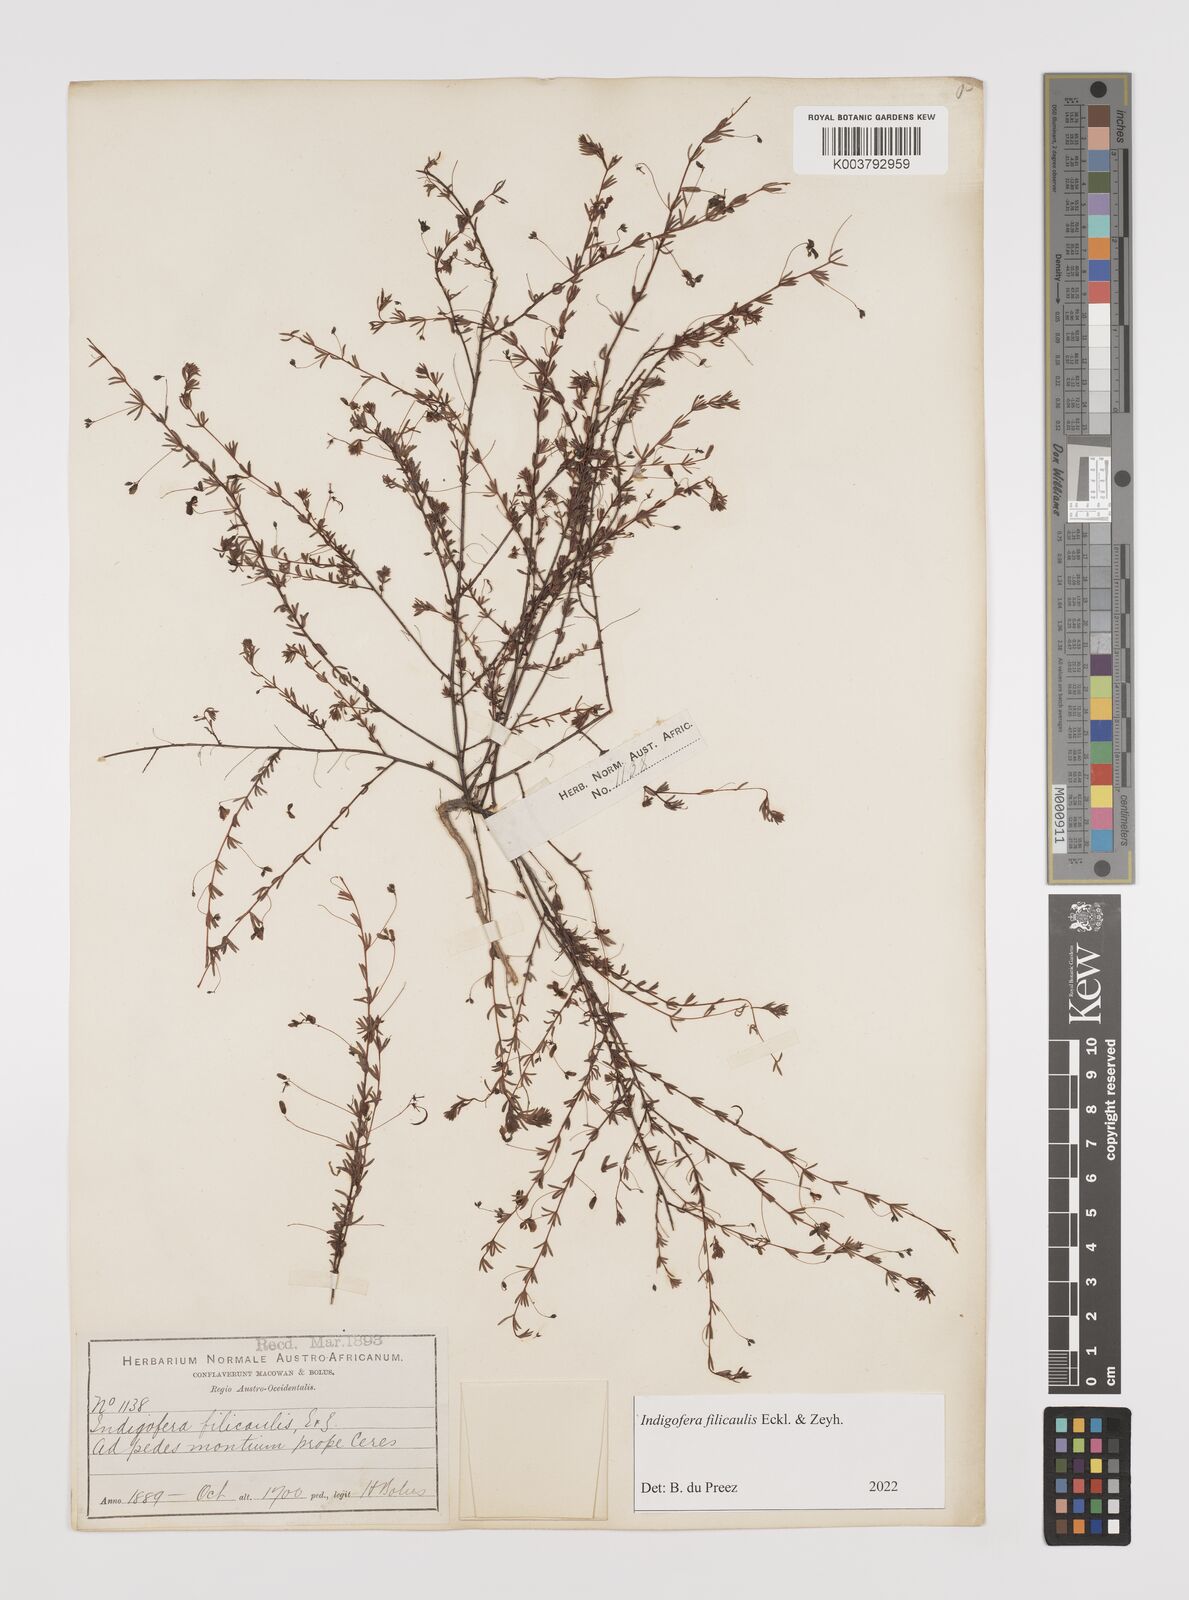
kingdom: Plantae
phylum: Tracheophyta
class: Magnoliopsida
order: Fabales
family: Fabaceae
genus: Indigofera
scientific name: Indigofera filicaulis
